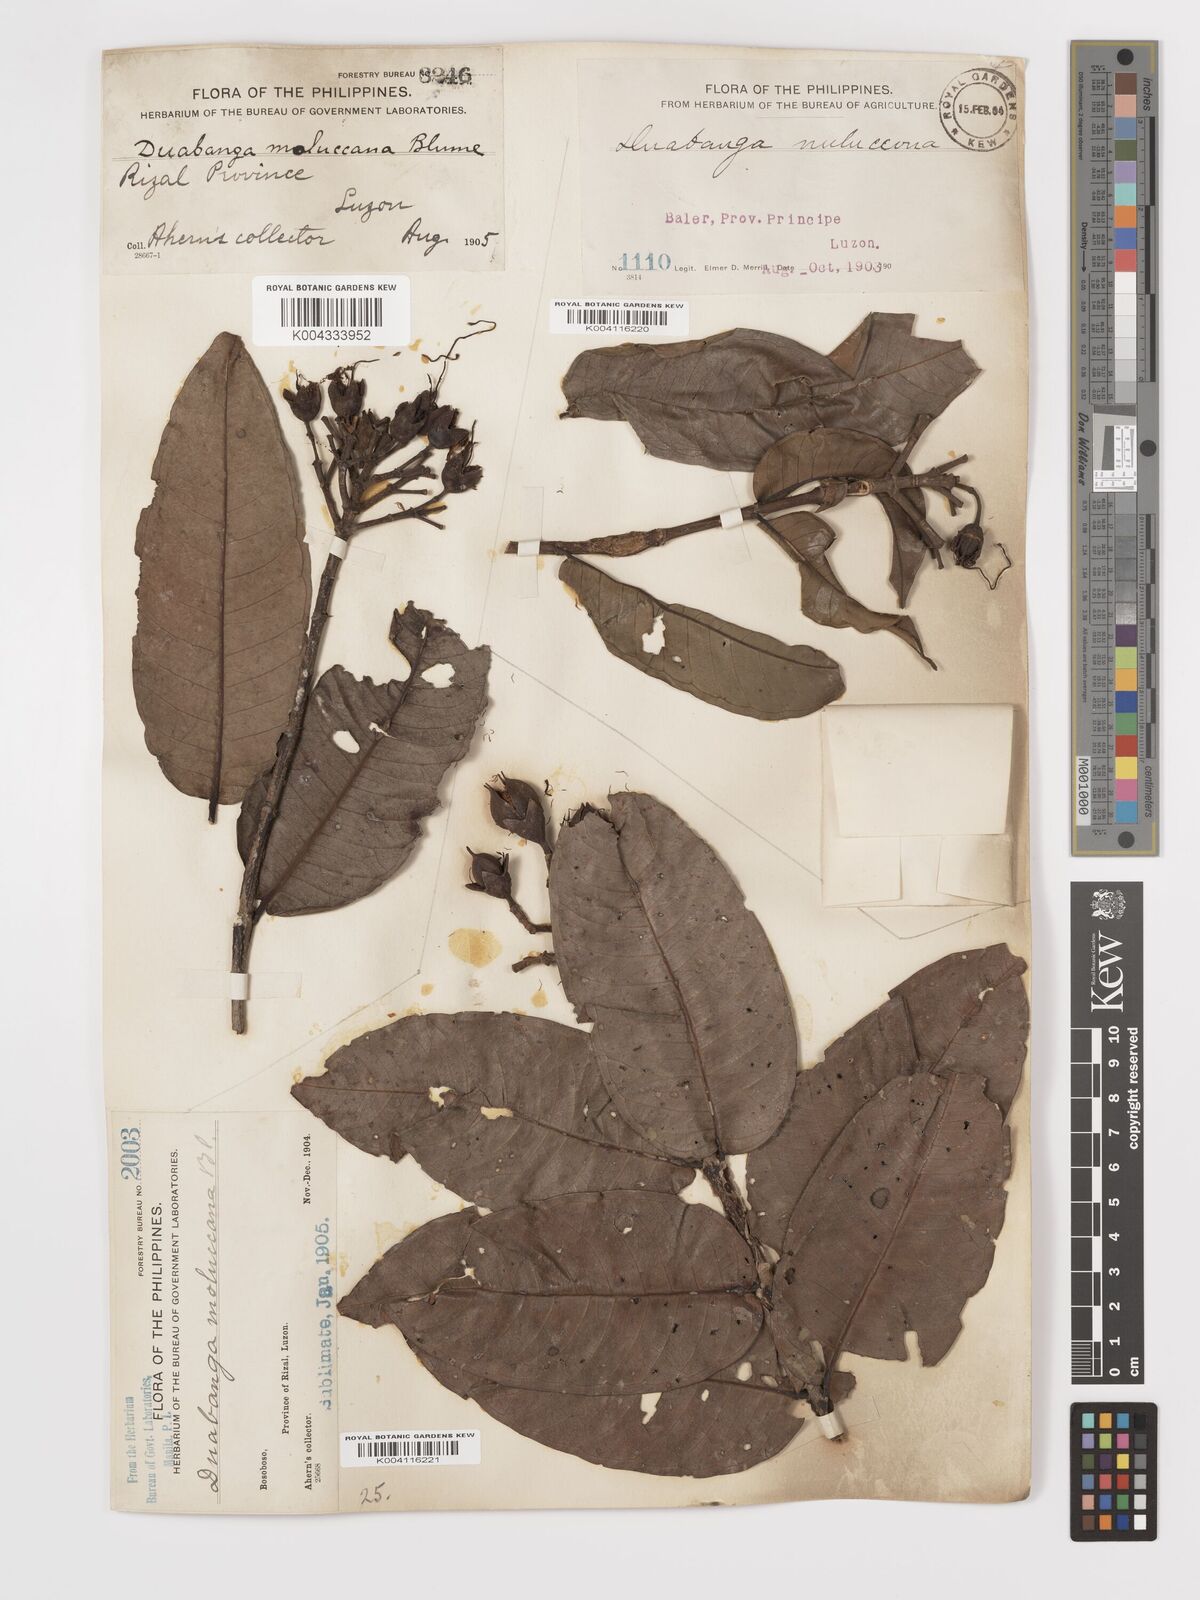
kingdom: Plantae
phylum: Tracheophyta
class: Magnoliopsida
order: Myrtales
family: Lythraceae
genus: Duabanga
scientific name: Duabanga moluccana
